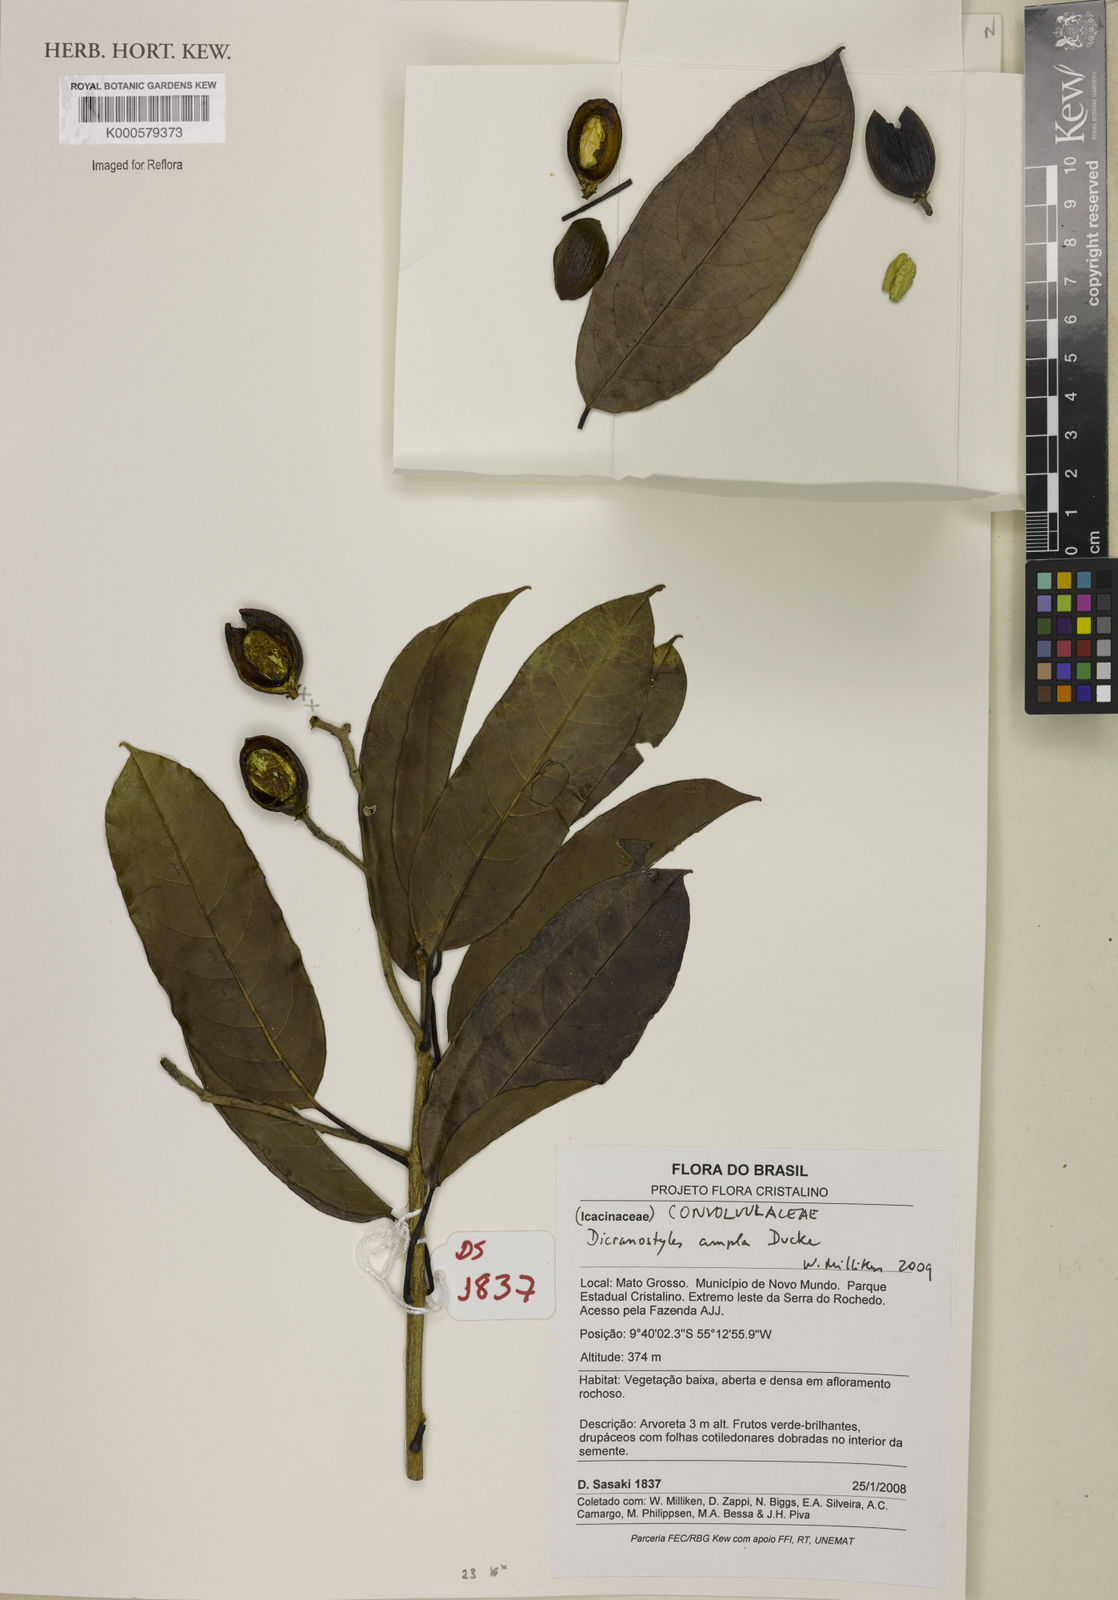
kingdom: Plantae
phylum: Tracheophyta
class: Magnoliopsida
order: Solanales
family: Convolvulaceae
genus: Dicranostyles
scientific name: Dicranostyles ampla
